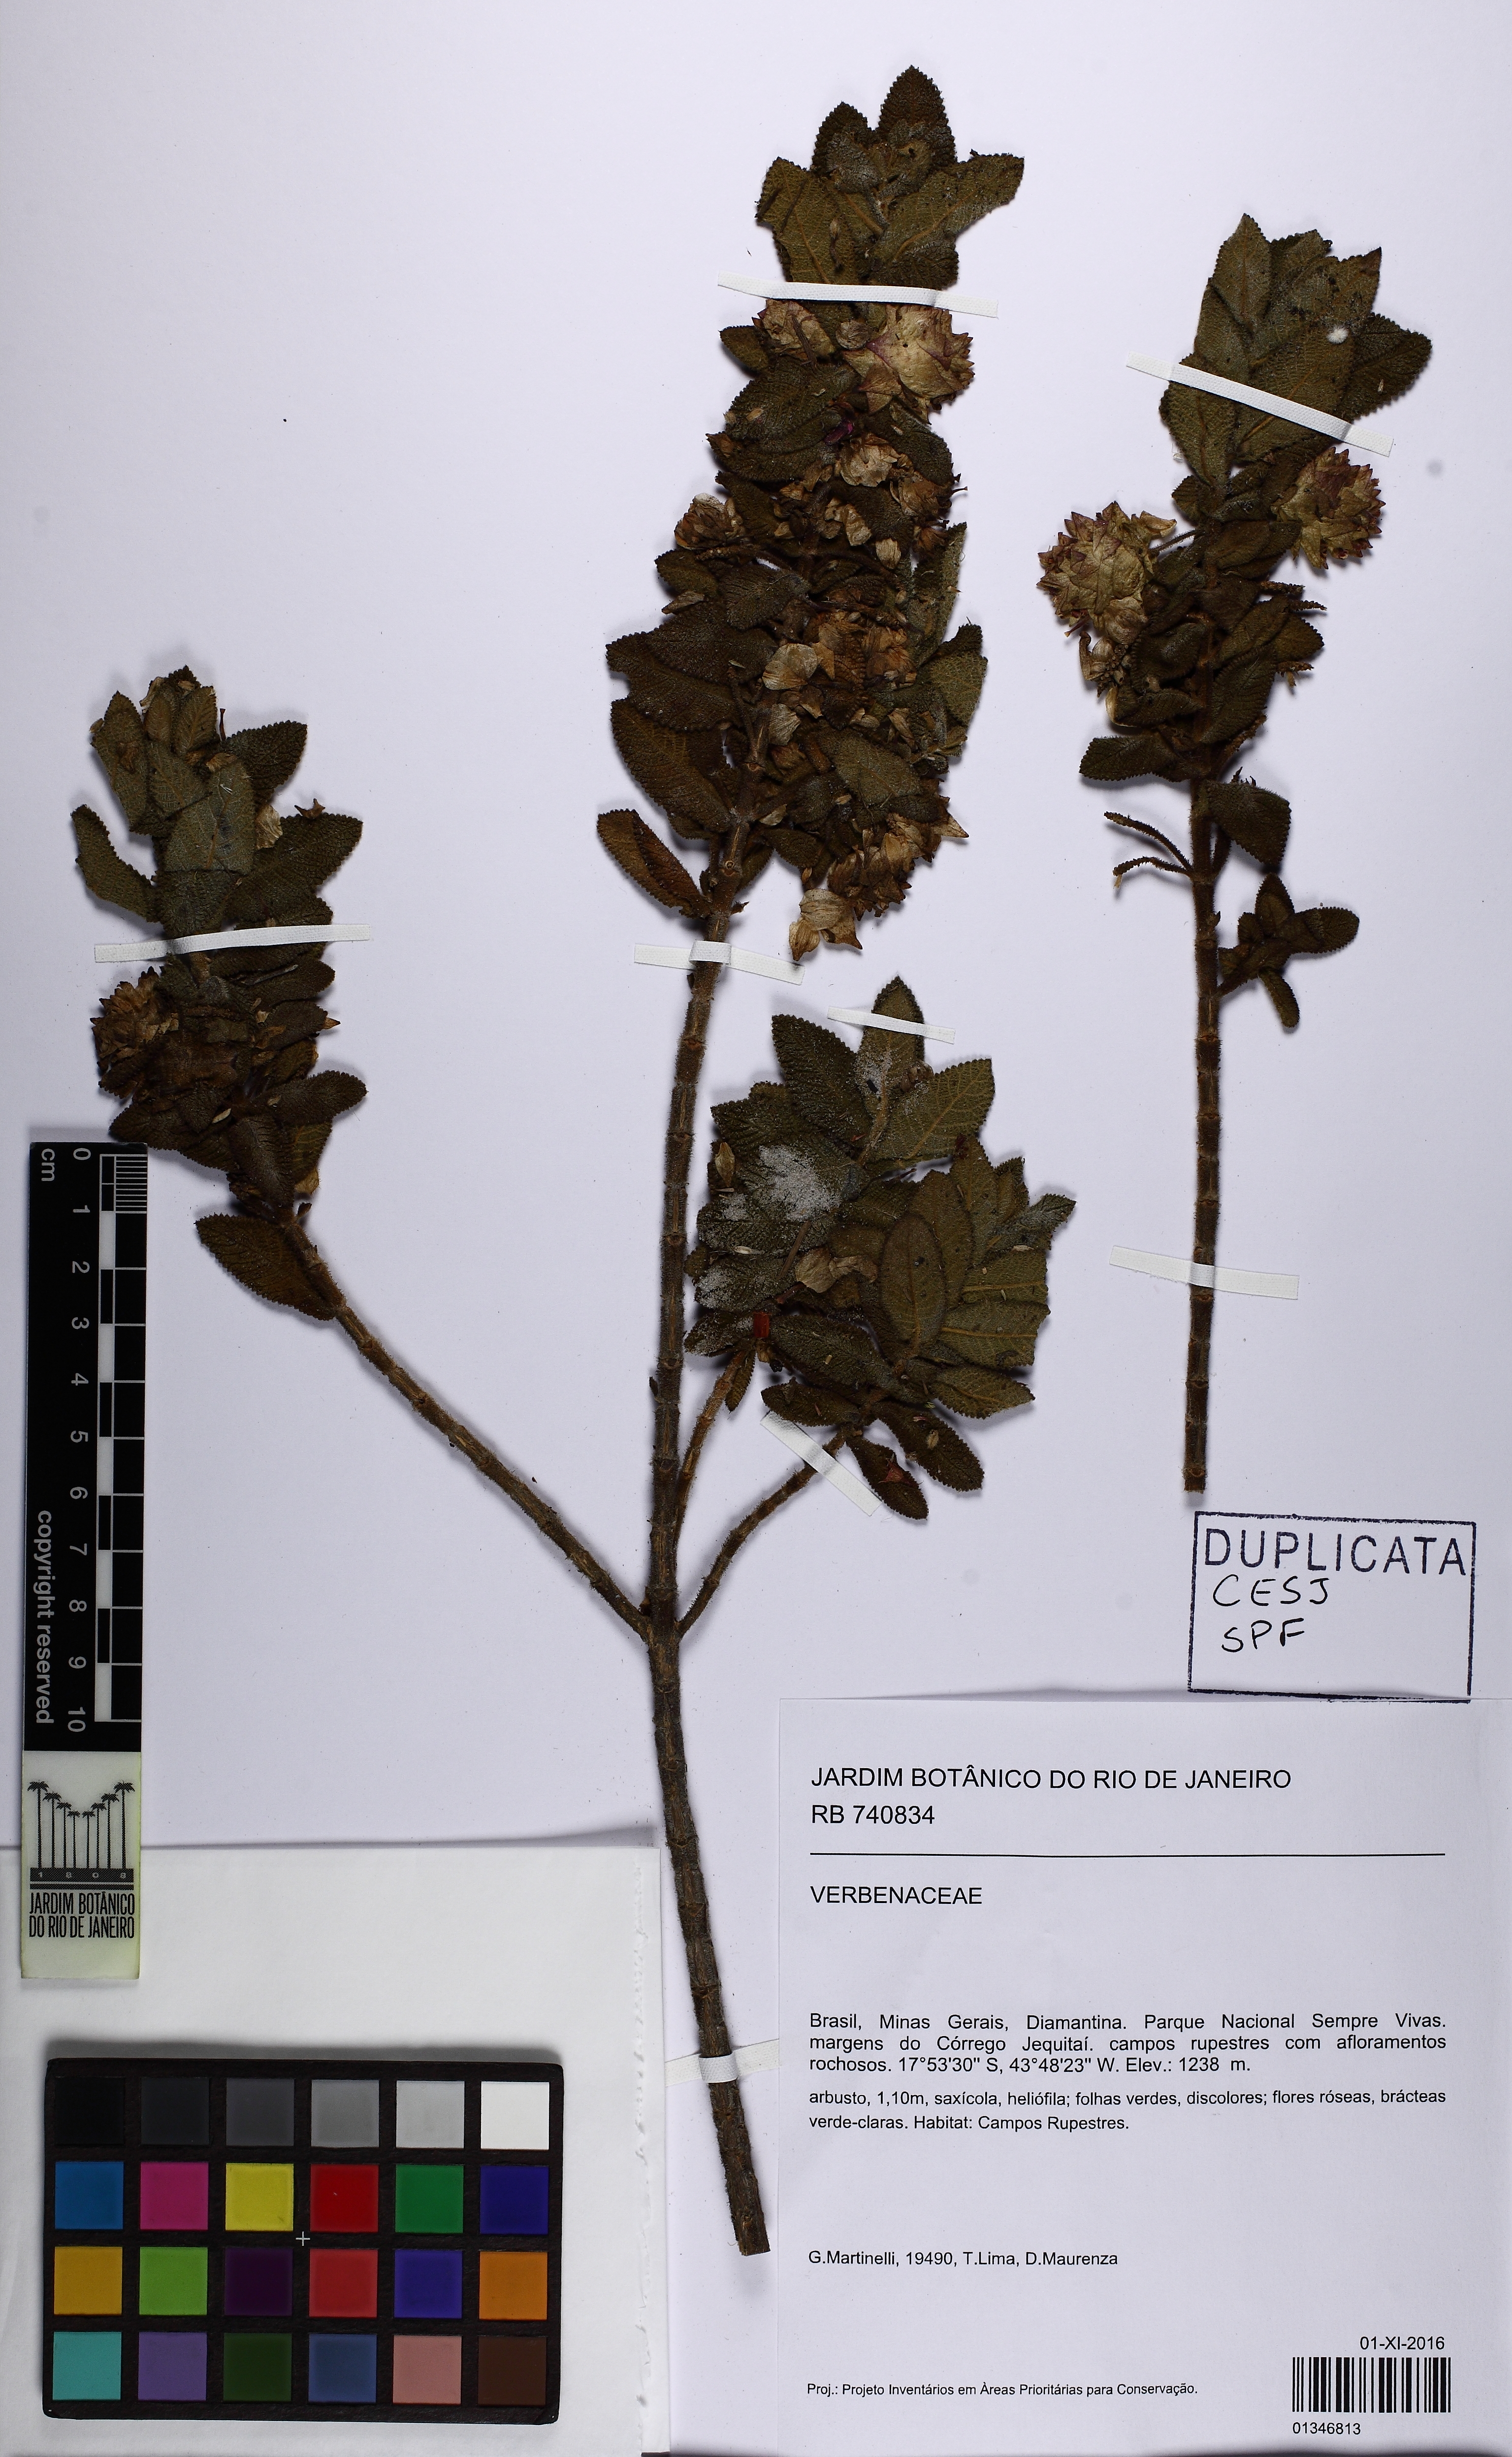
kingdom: Plantae
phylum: Tracheophyta
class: Magnoliopsida
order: Lamiales
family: Verbenaceae
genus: Lippia
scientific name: Lippia
